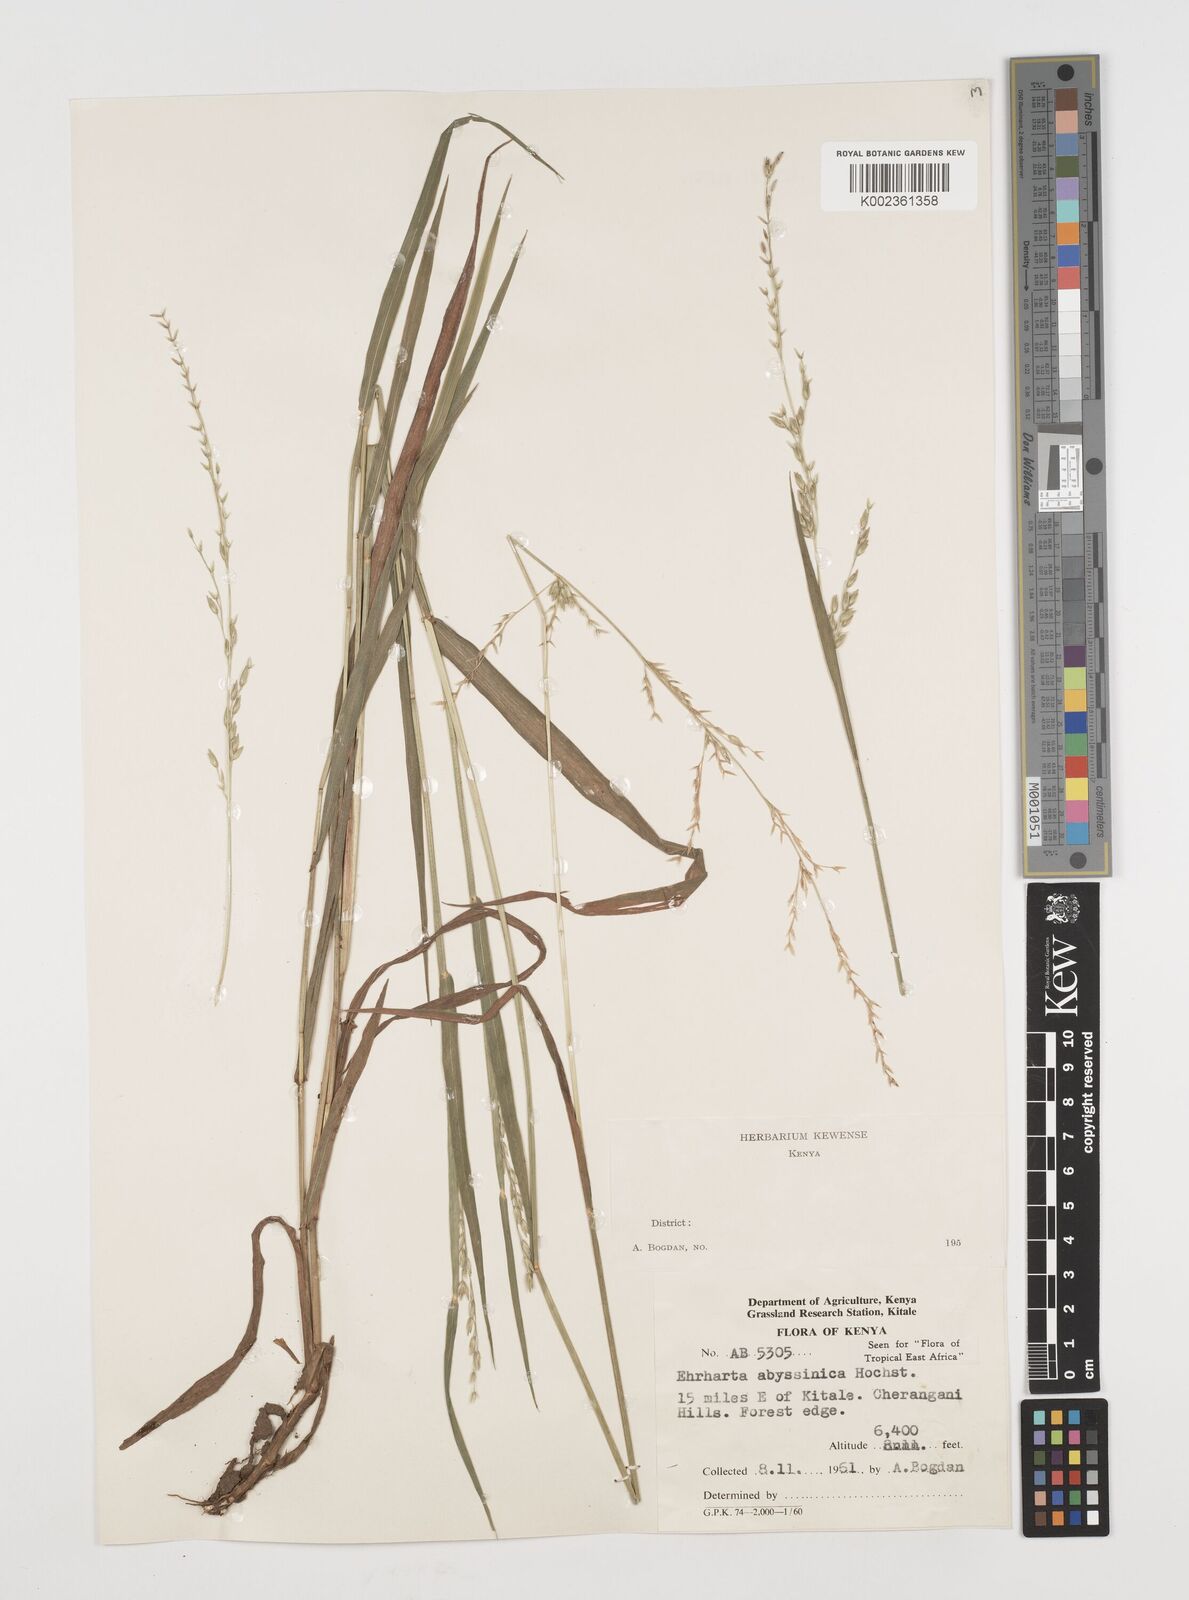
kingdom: Plantae
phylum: Tracheophyta
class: Liliopsida
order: Poales
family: Poaceae
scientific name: Poaceae
